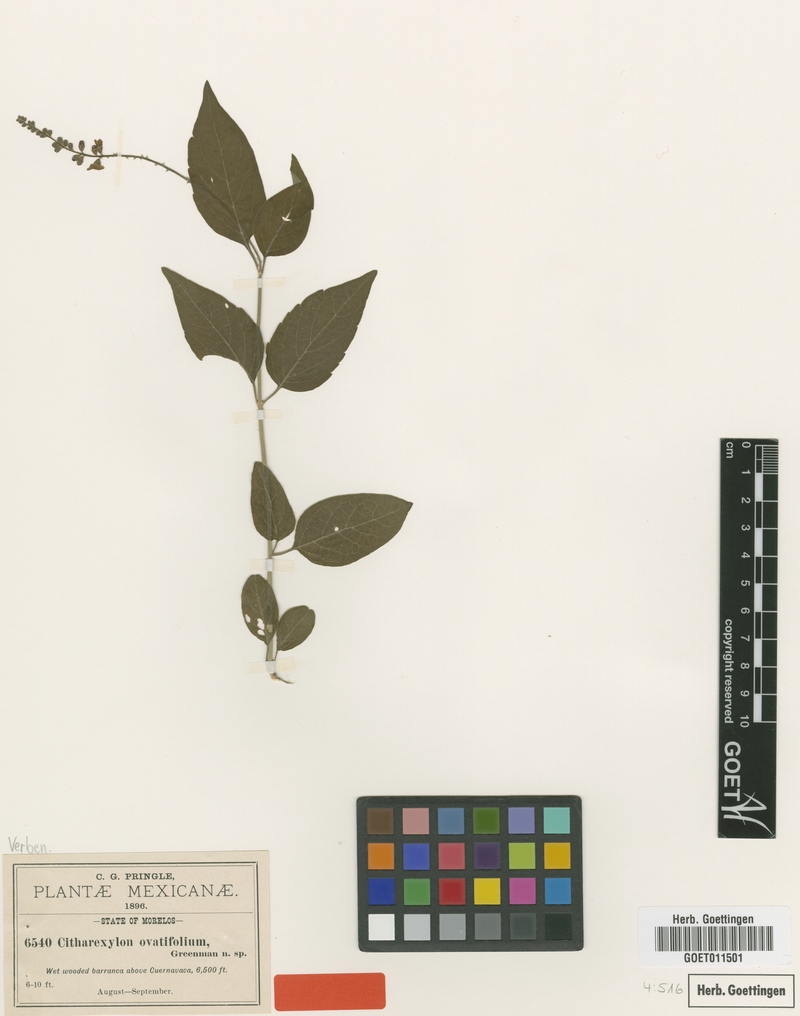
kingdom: Plantae
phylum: Tracheophyta
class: Magnoliopsida
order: Lamiales
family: Verbenaceae
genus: Citharexylum
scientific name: Citharexylum ovatifolium
